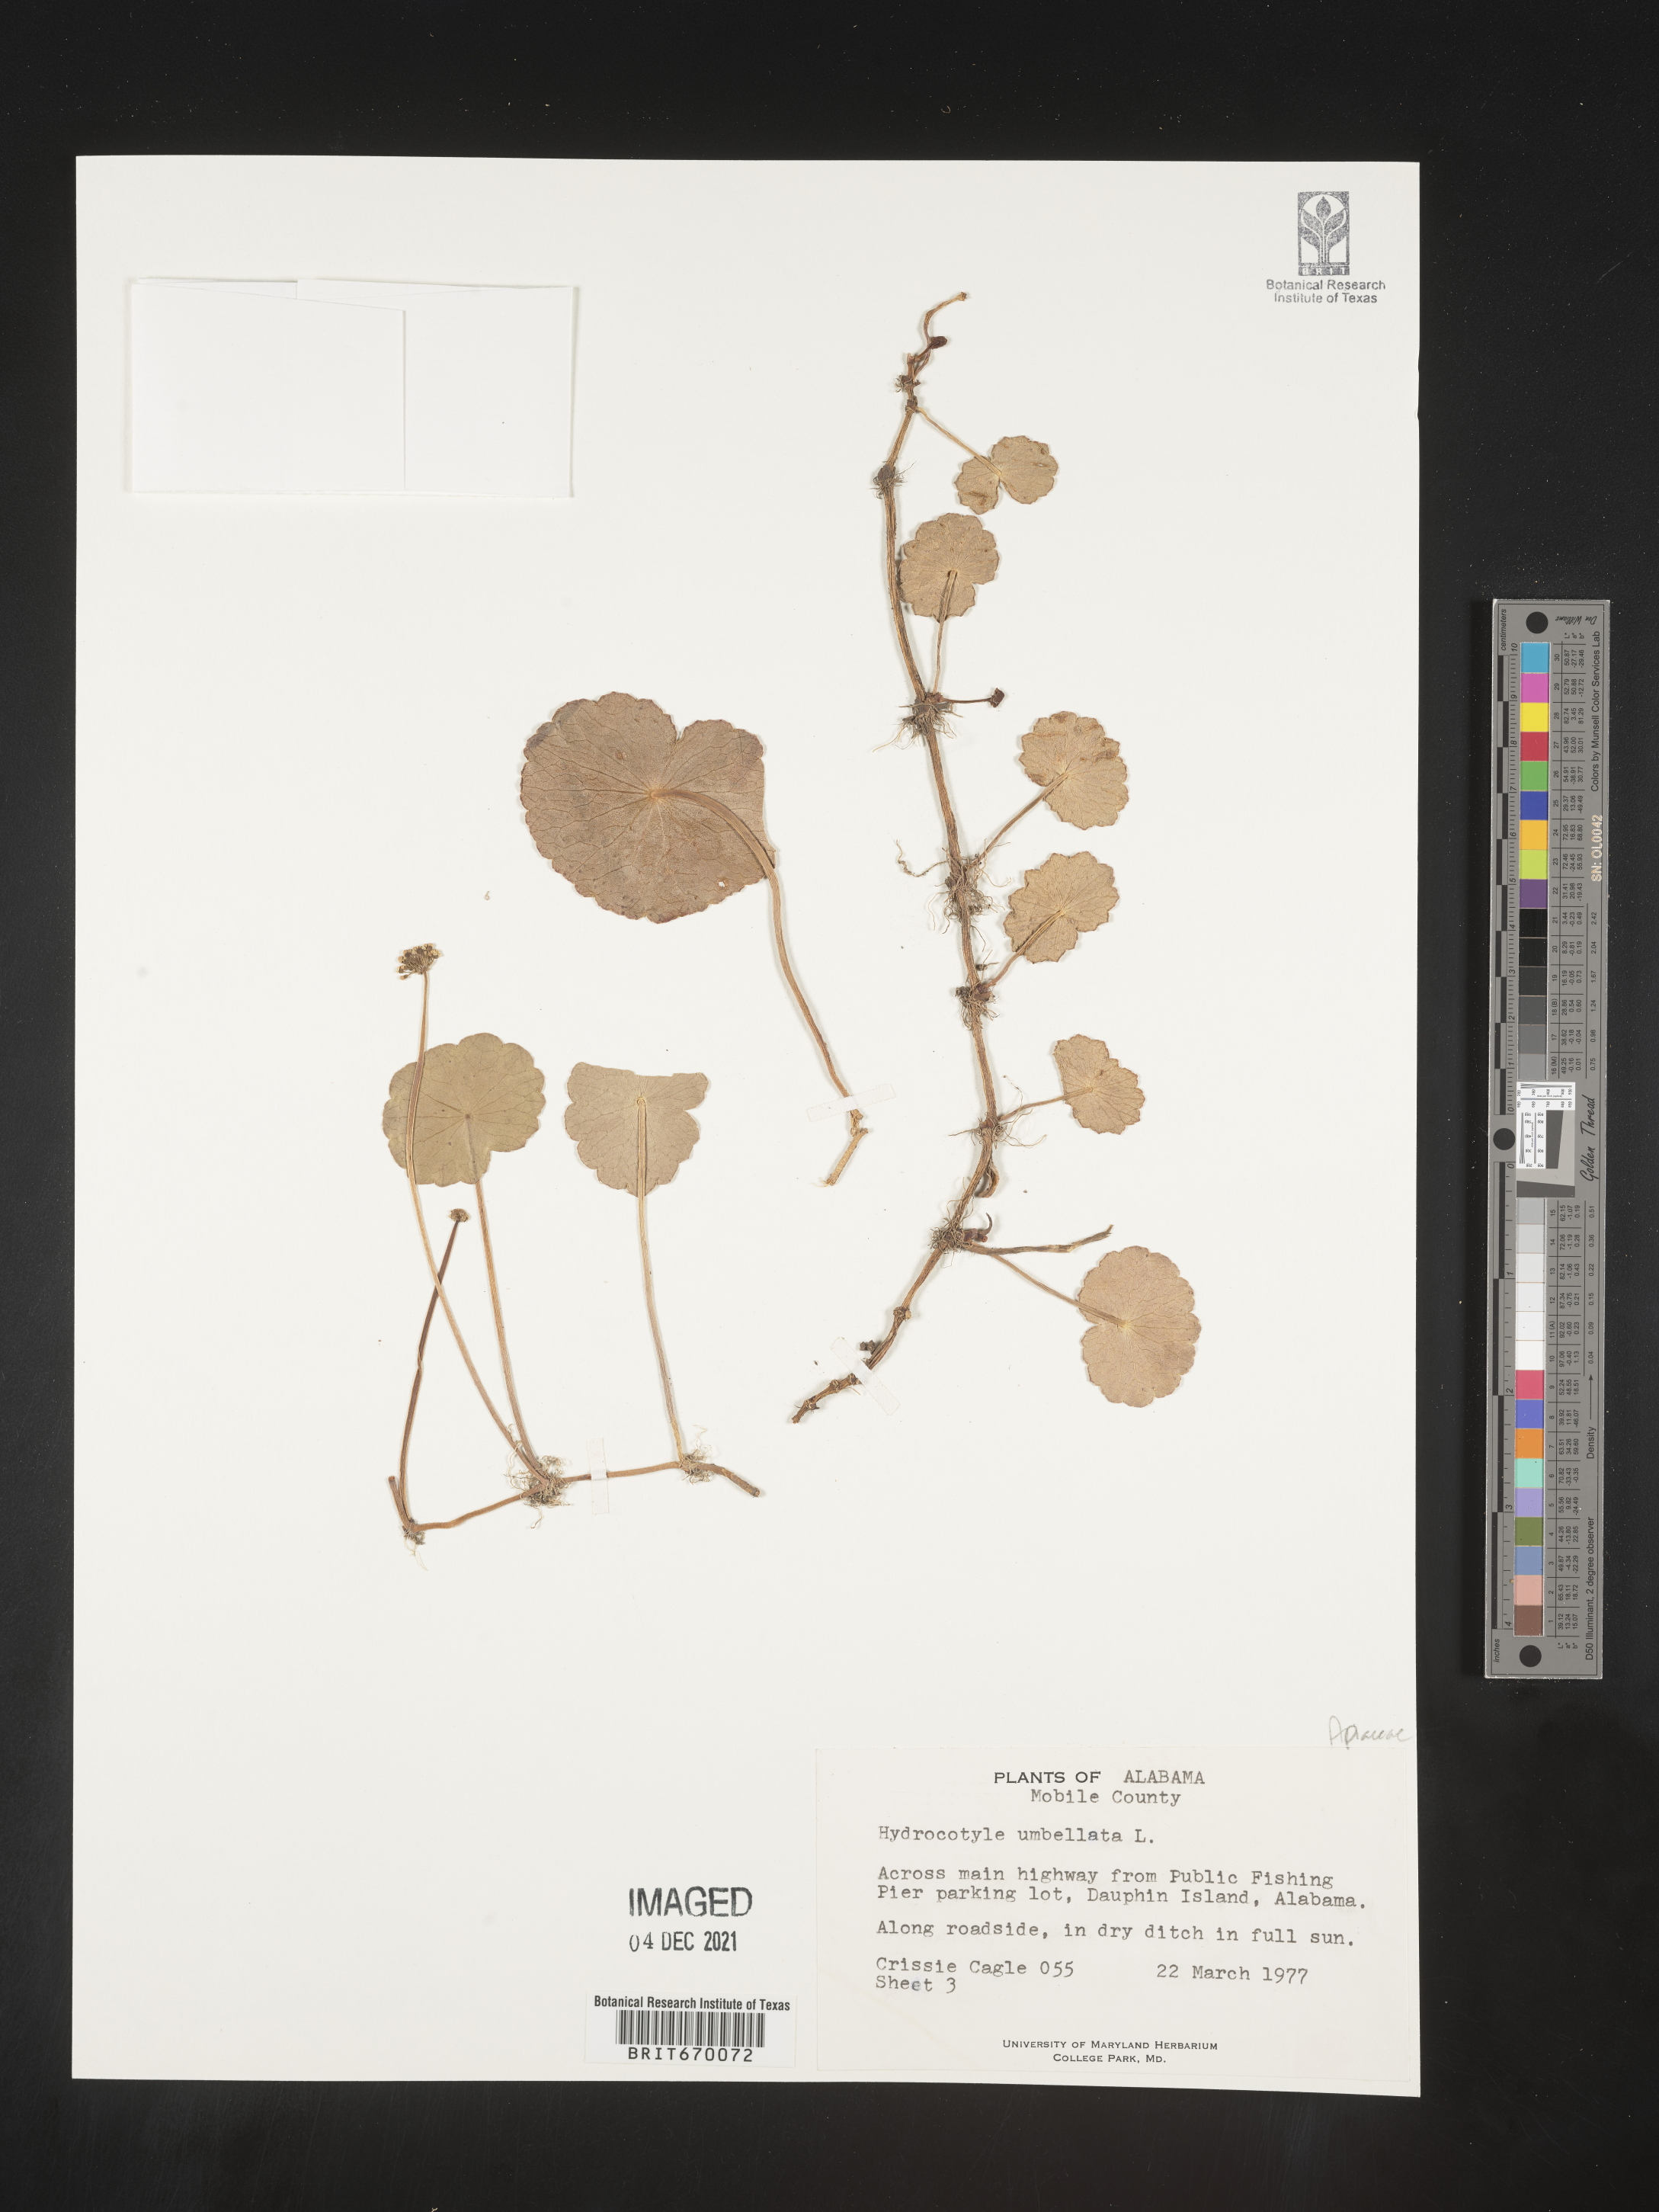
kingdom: Plantae
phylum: Tracheophyta
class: Magnoliopsida
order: Apiales
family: Araliaceae
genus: Hydrocotyle
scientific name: Hydrocotyle umbellata
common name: Water pennywort
